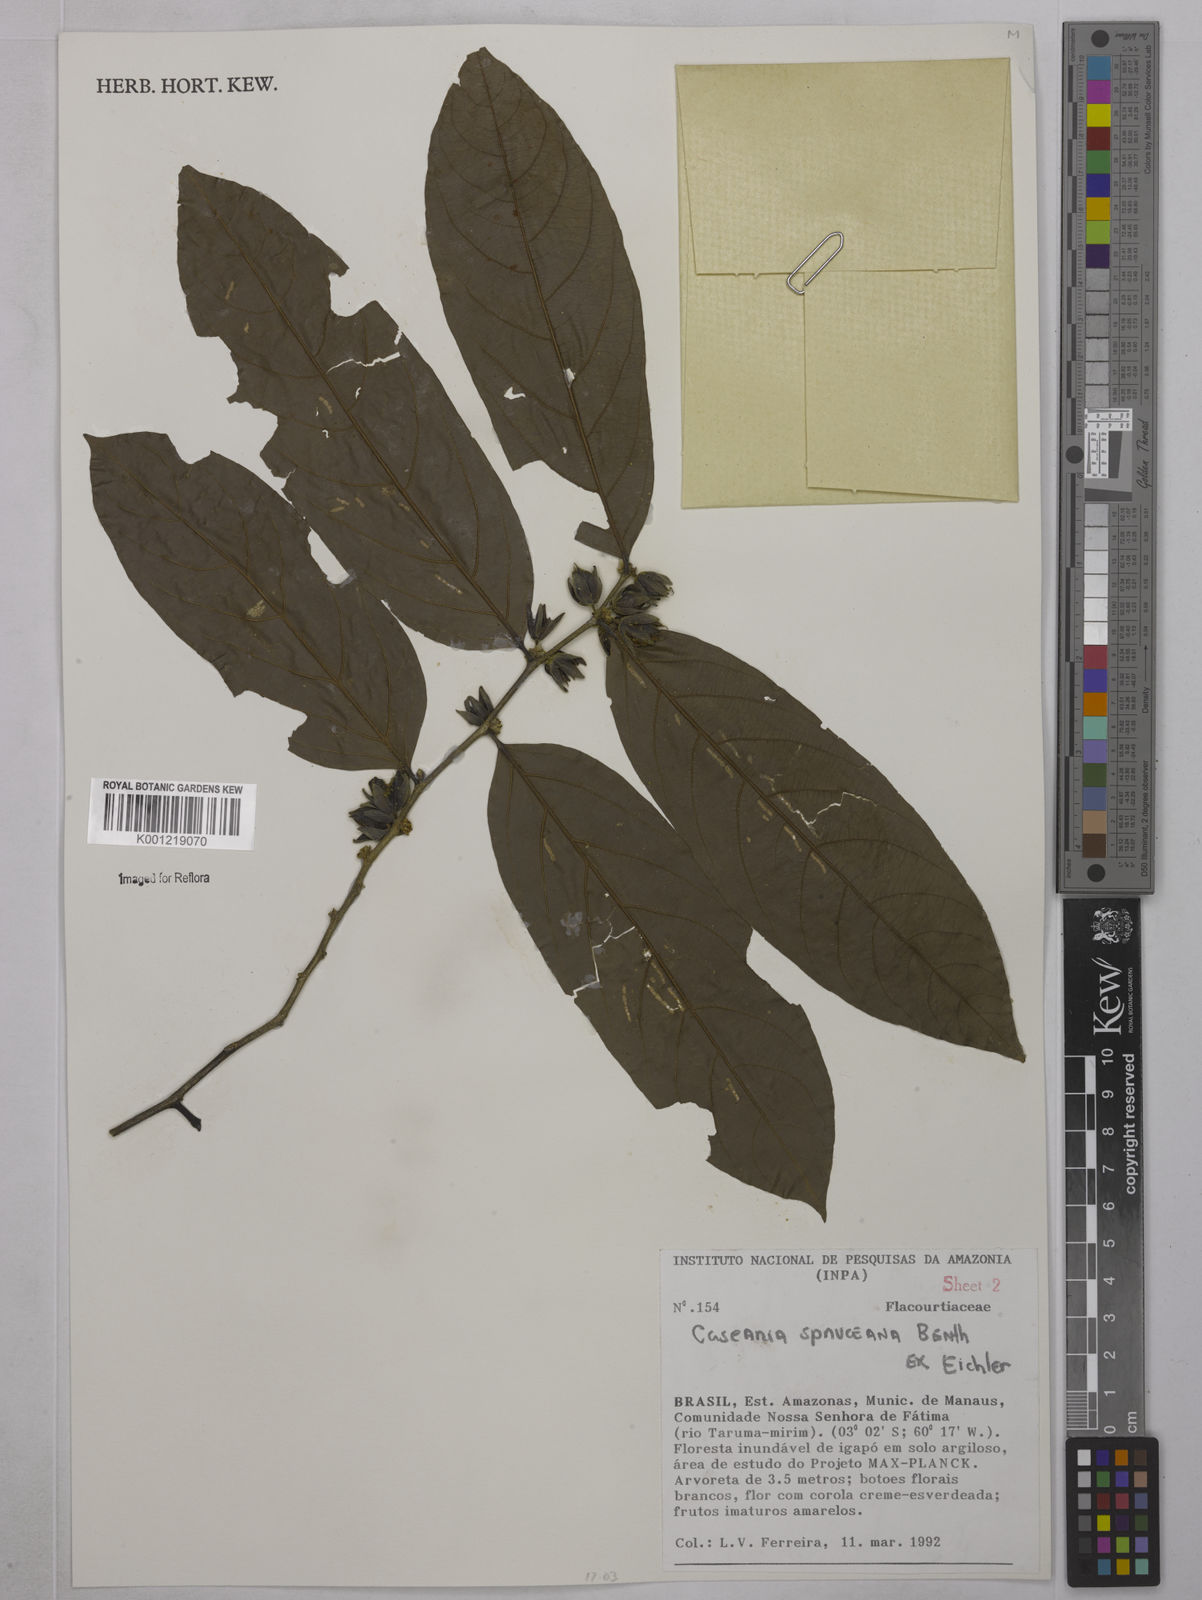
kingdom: Plantae
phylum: Tracheophyta
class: Magnoliopsida
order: Malpighiales
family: Salicaceae
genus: Piparea
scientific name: Piparea spruceana
